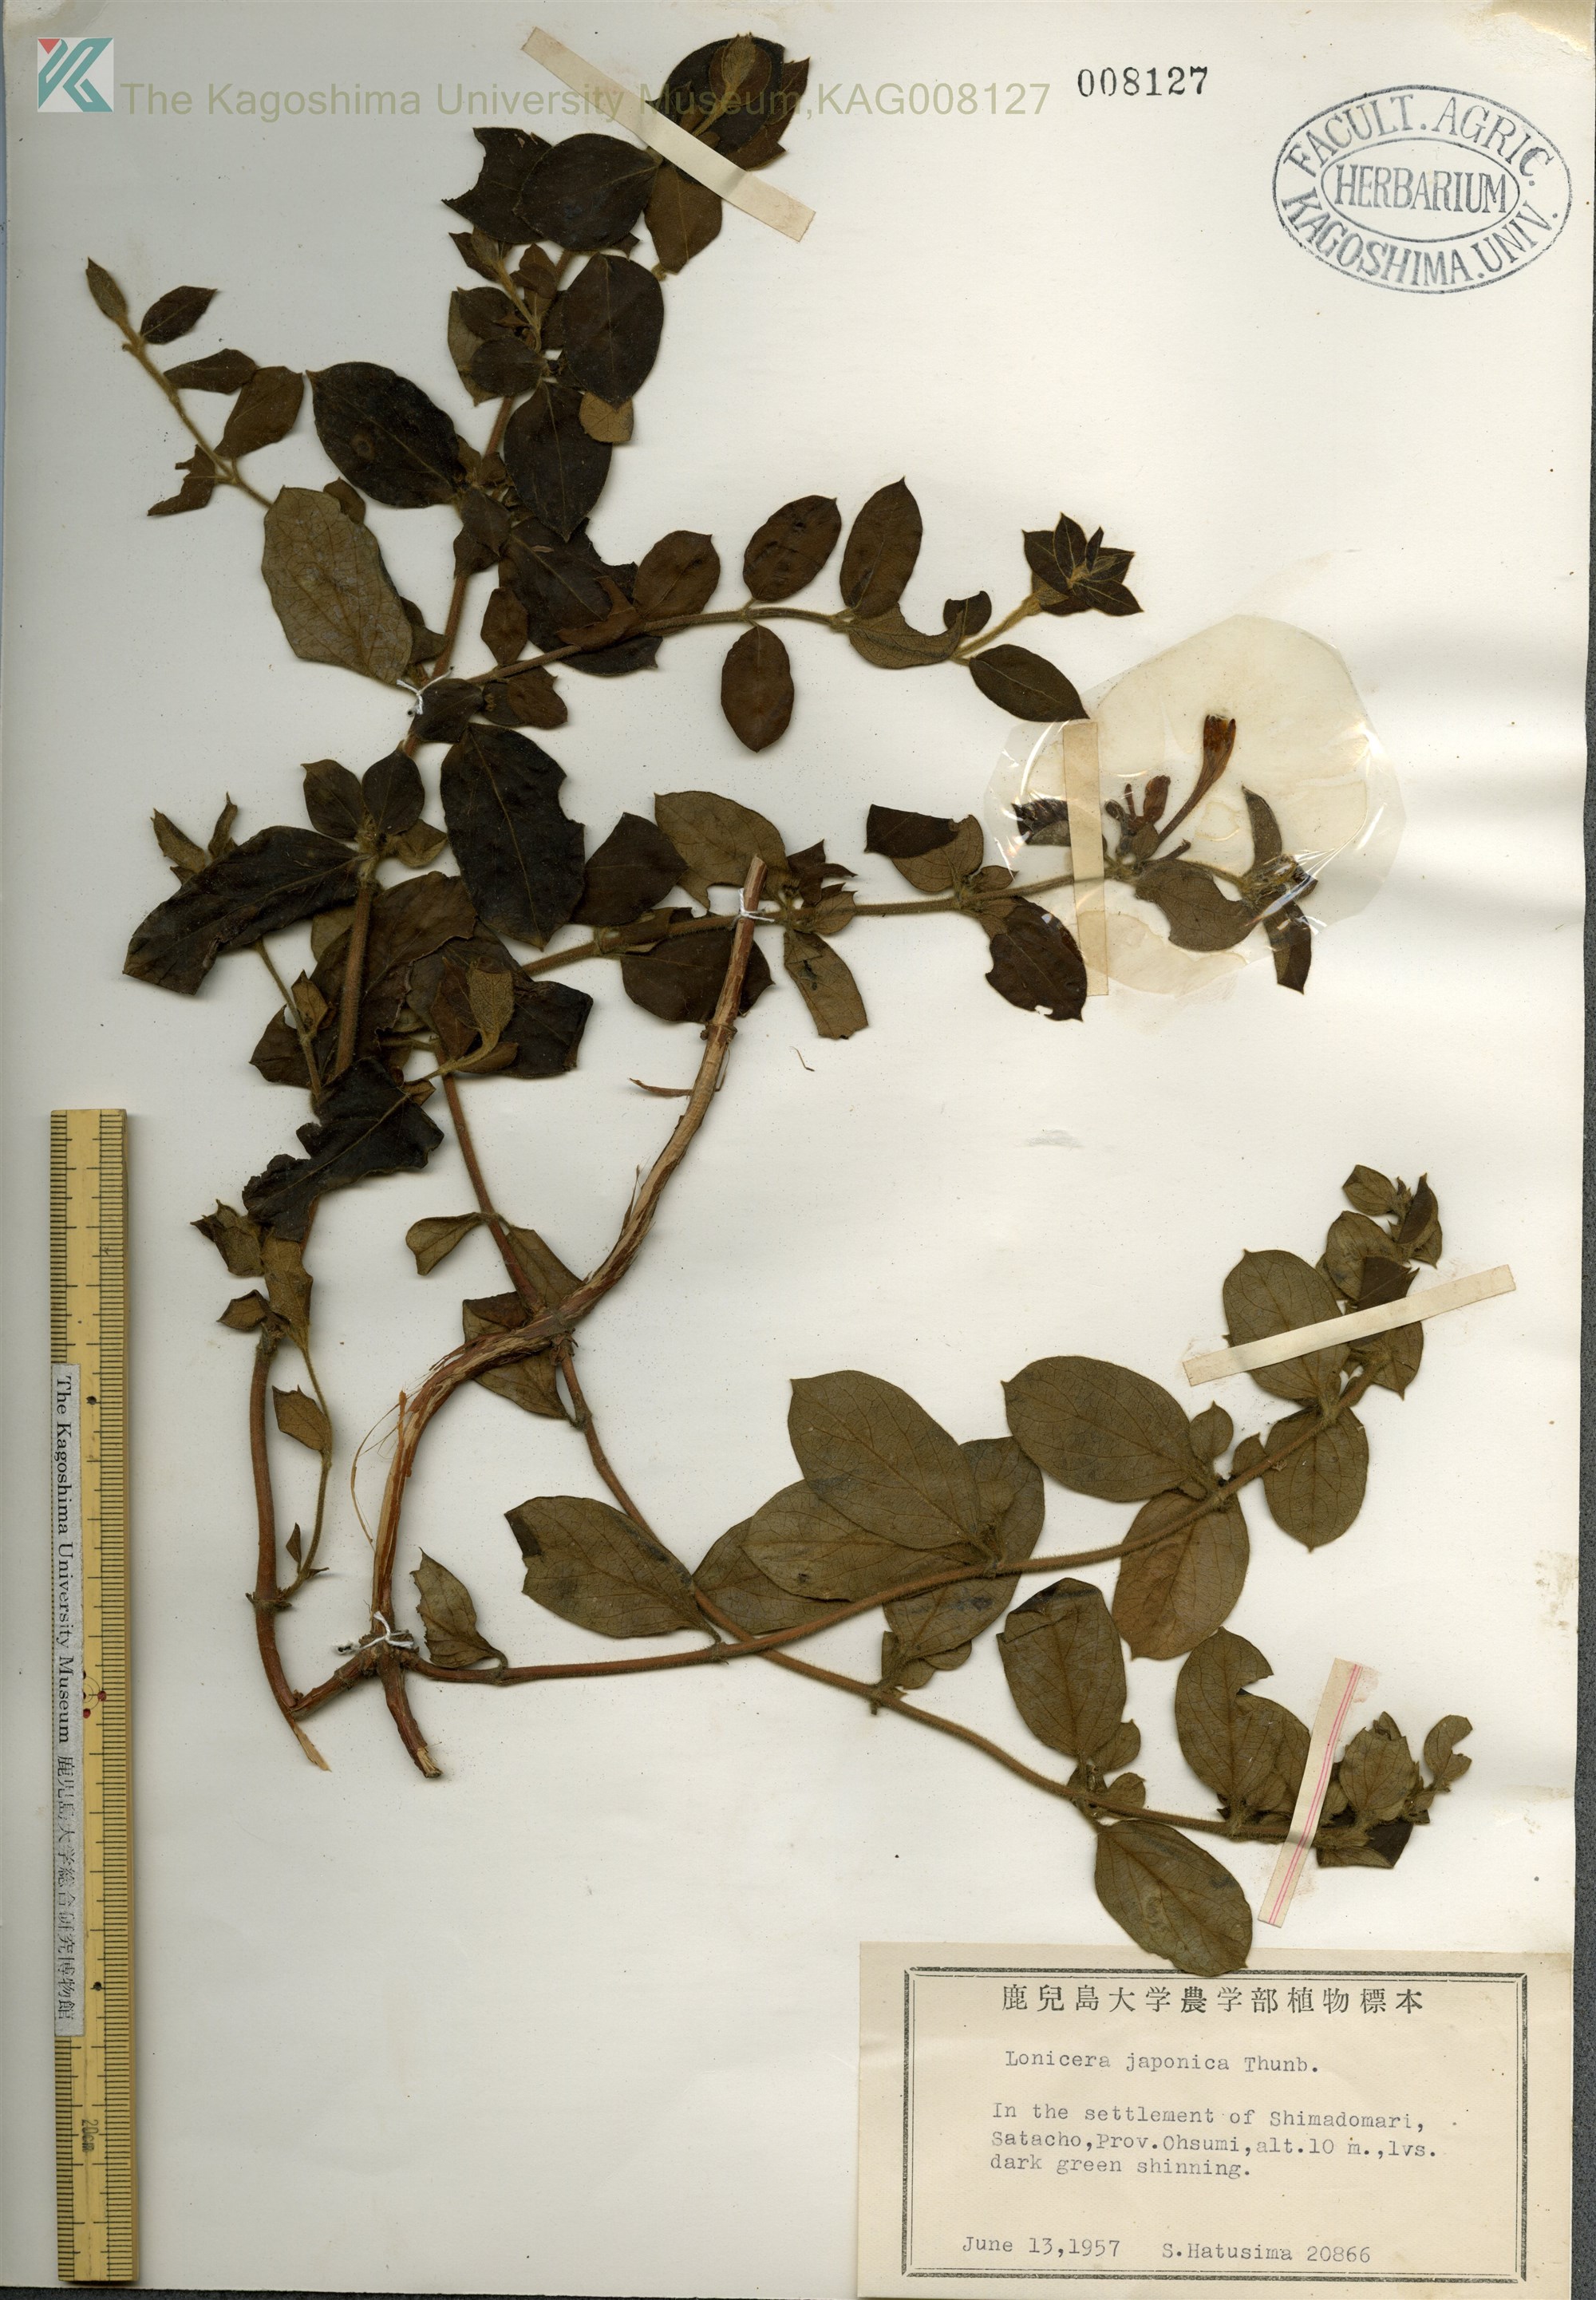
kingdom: Plantae
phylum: Tracheophyta
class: Magnoliopsida
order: Dipsacales
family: Caprifoliaceae
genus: Lonicera
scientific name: Lonicera japonica
